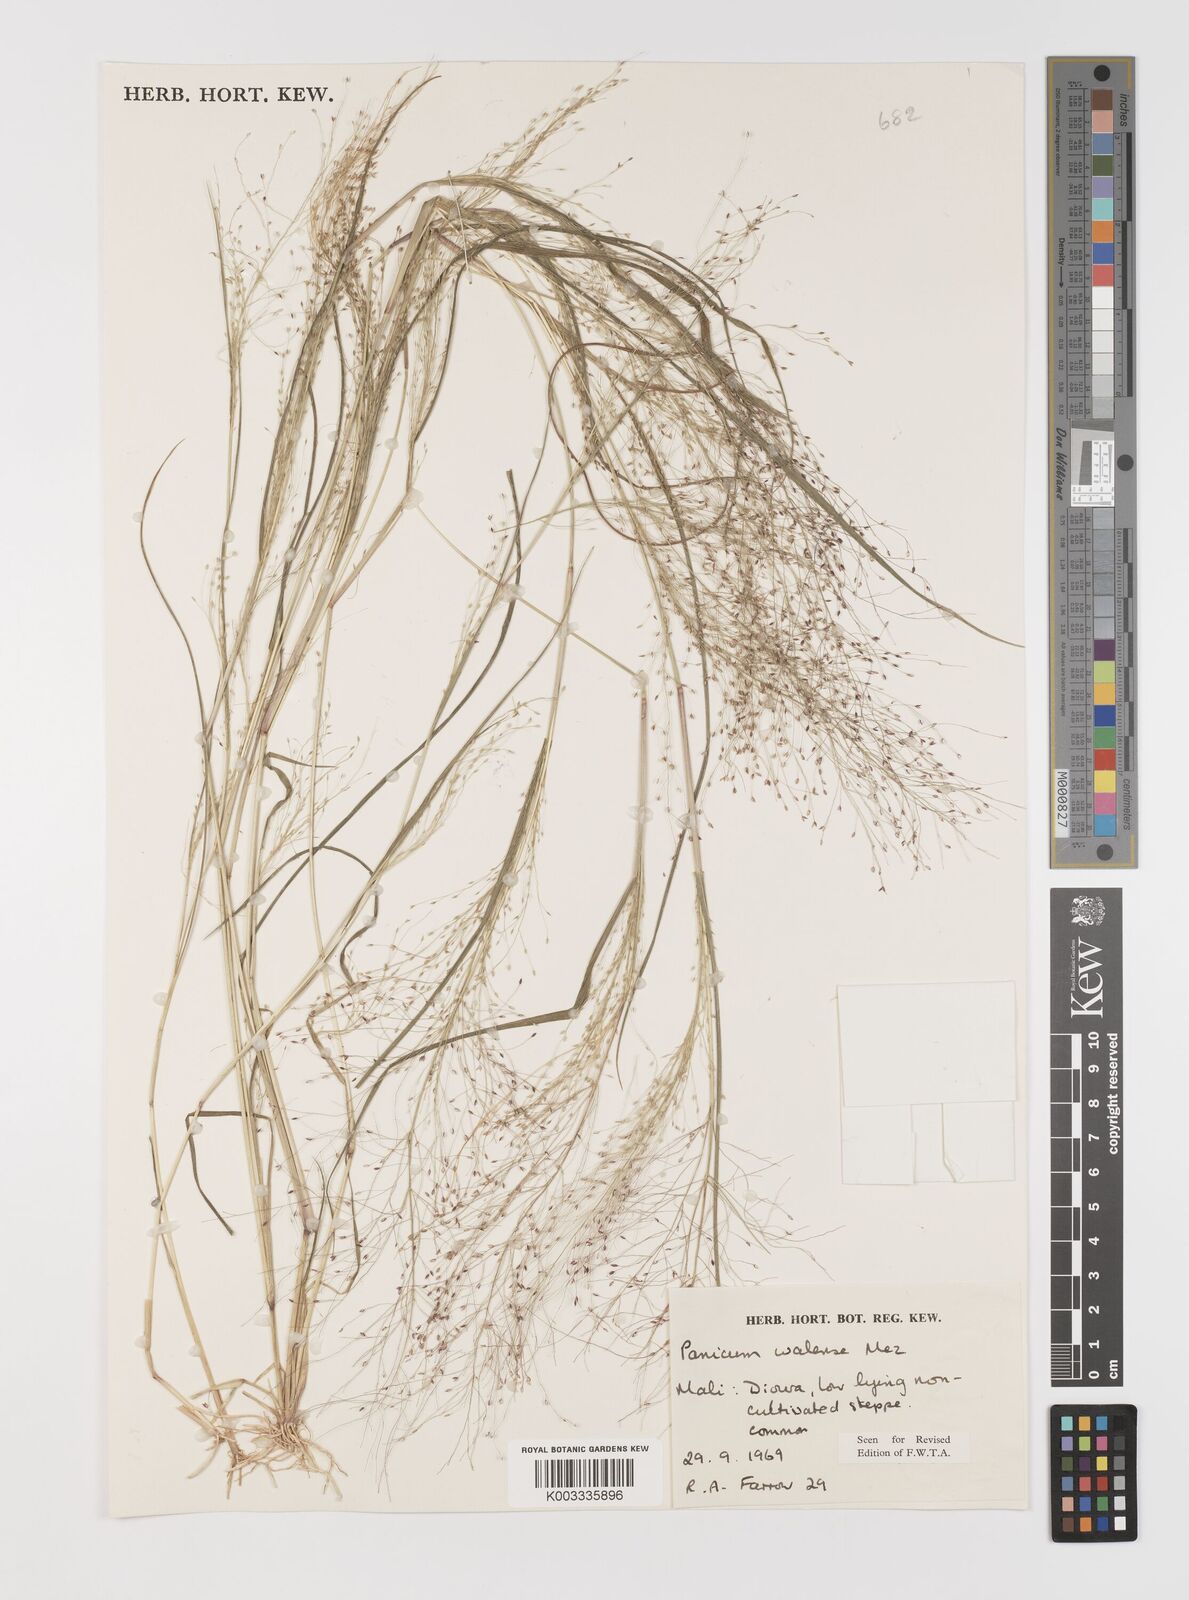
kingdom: Plantae
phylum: Tracheophyta
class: Liliopsida
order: Poales
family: Poaceae
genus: Panicum
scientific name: Panicum humile
